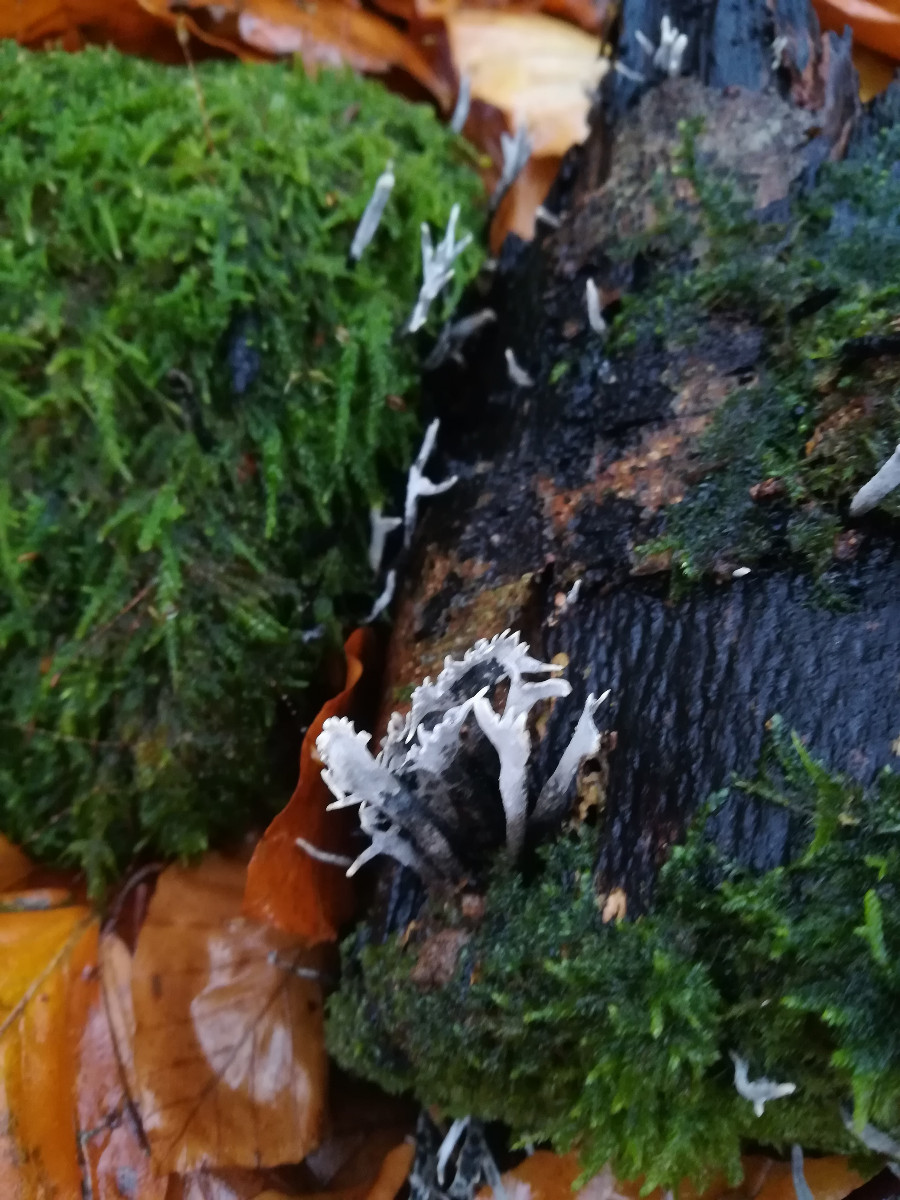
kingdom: Fungi
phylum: Ascomycota
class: Sordariomycetes
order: Xylariales
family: Xylariaceae
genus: Xylaria
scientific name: Xylaria hypoxylon
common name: grenet stødsvamp
